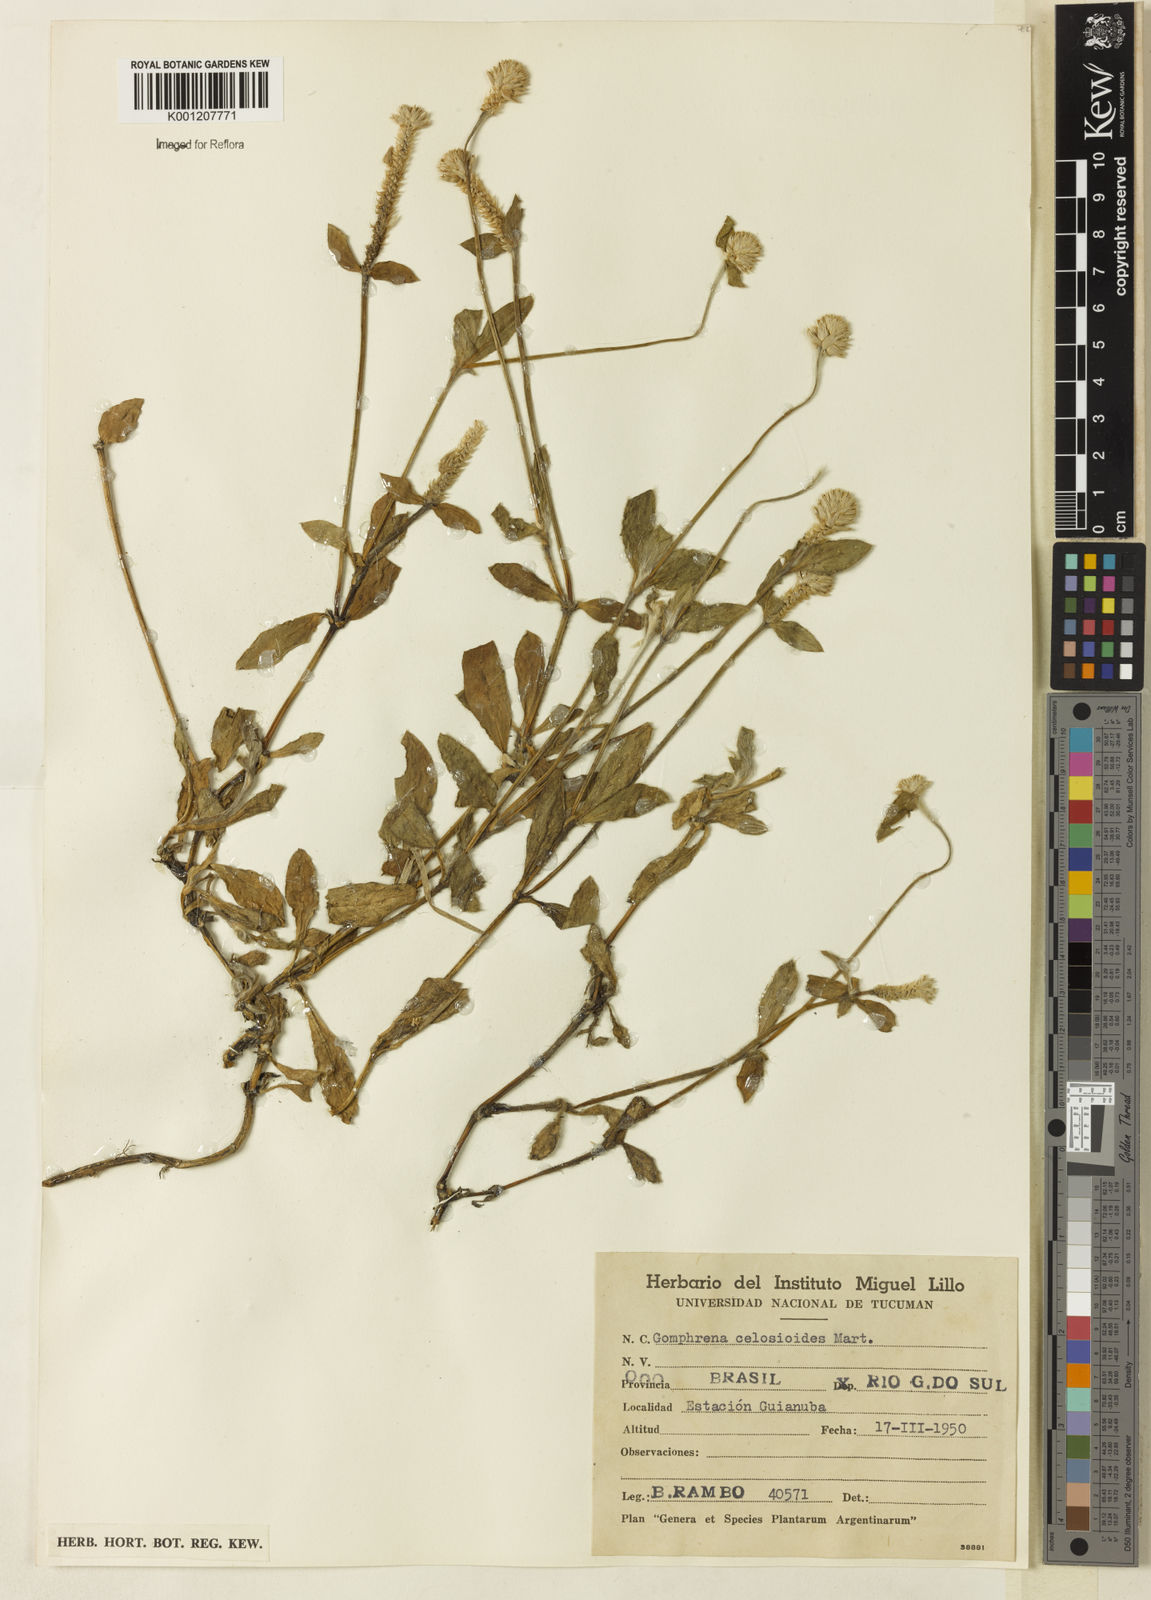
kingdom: Plantae
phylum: Tracheophyta
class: Magnoliopsida
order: Caryophyllales
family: Amaranthaceae
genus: Gomphrena
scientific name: Gomphrena celosioides
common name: Gomphrena-weed
